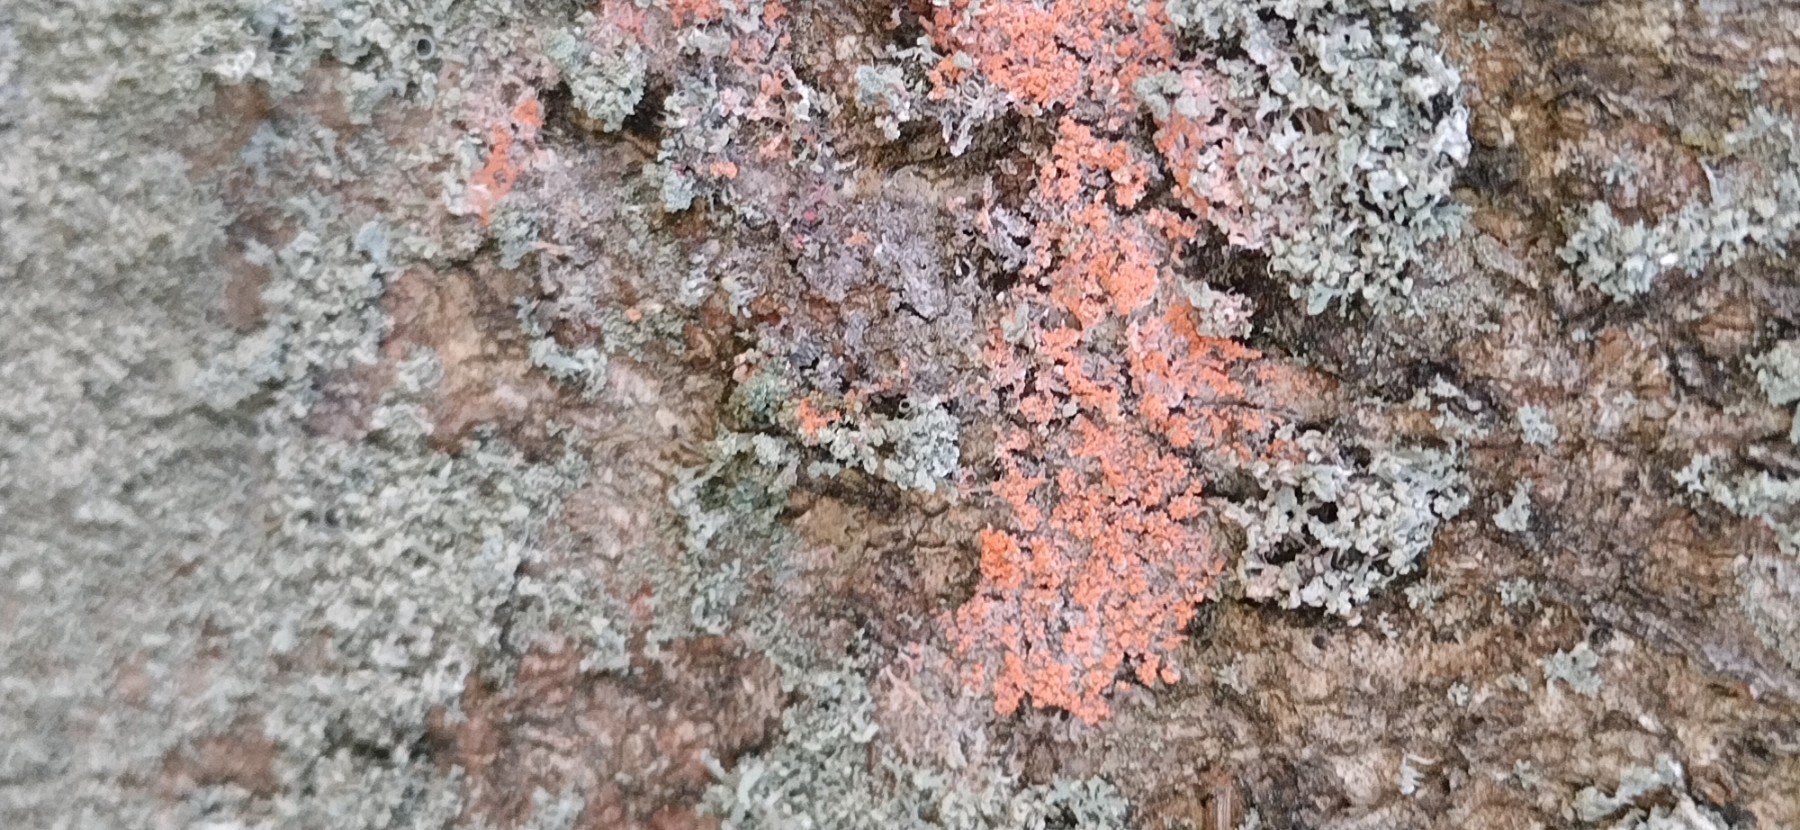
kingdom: Fungi
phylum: Basidiomycota
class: Agaricomycetes
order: Corticiales
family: Corticiaceae
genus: Erythricium
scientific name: Erythricium aurantiacum
